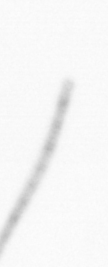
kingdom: Chromista
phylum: Ochrophyta
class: Bacillariophyceae
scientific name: Bacillariophyceae
